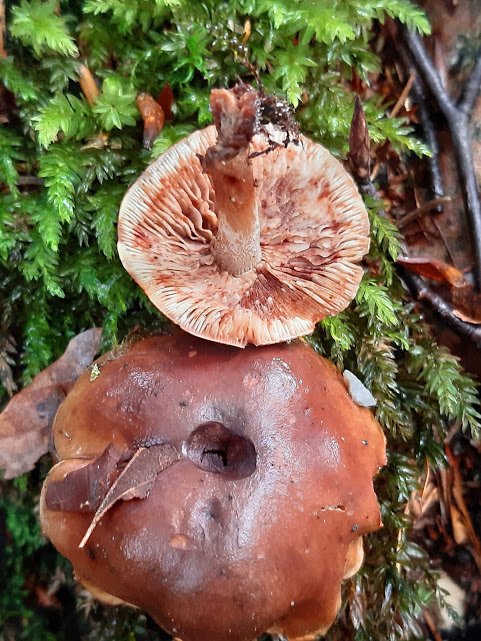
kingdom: Fungi
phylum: Basidiomycota
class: Agaricomycetes
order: Agaricales
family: Tricholomataceae
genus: Tricholoma
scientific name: Tricholoma ustale
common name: sveden ridderhat
